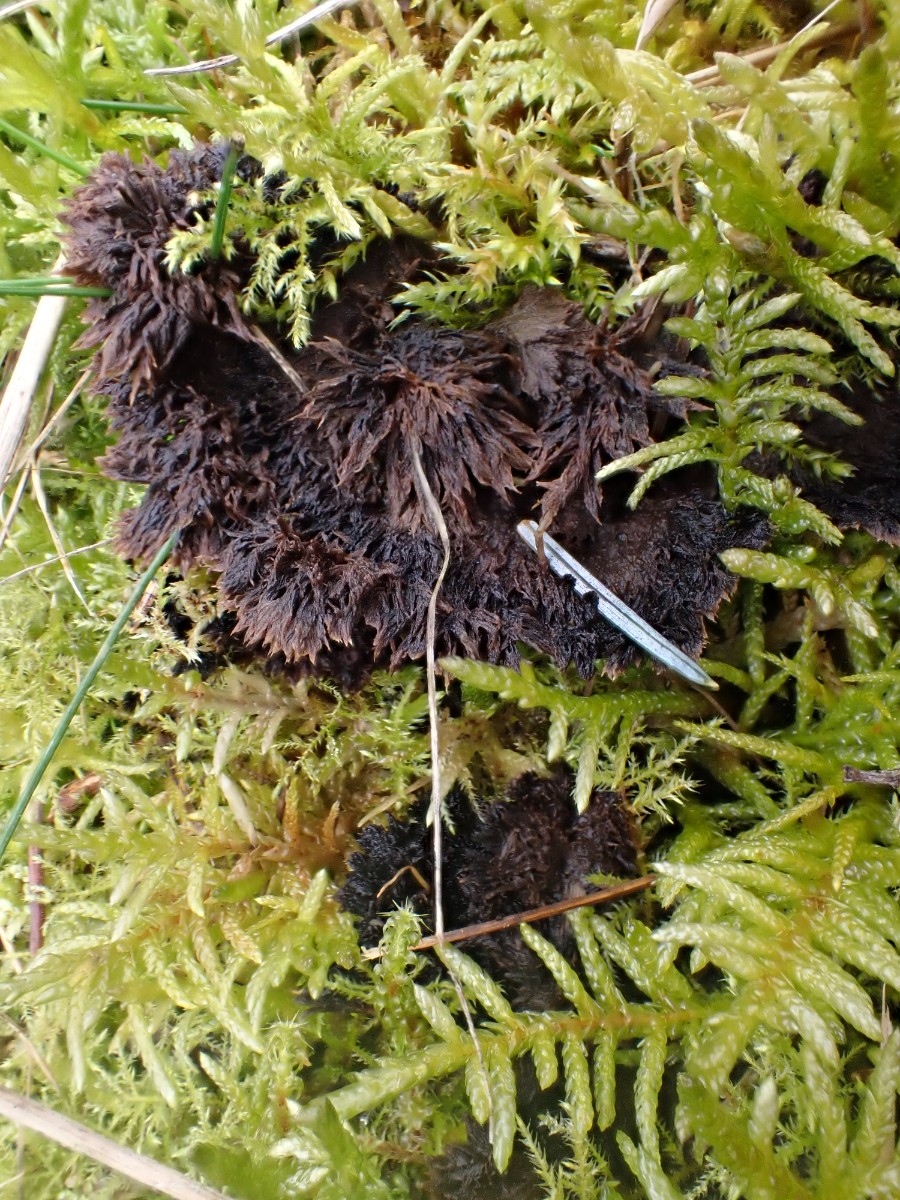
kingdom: Fungi
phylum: Basidiomycota
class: Agaricomycetes
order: Thelephorales
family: Thelephoraceae
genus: Thelephora
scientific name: Thelephora terrestris
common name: fliget frynsesvamp
